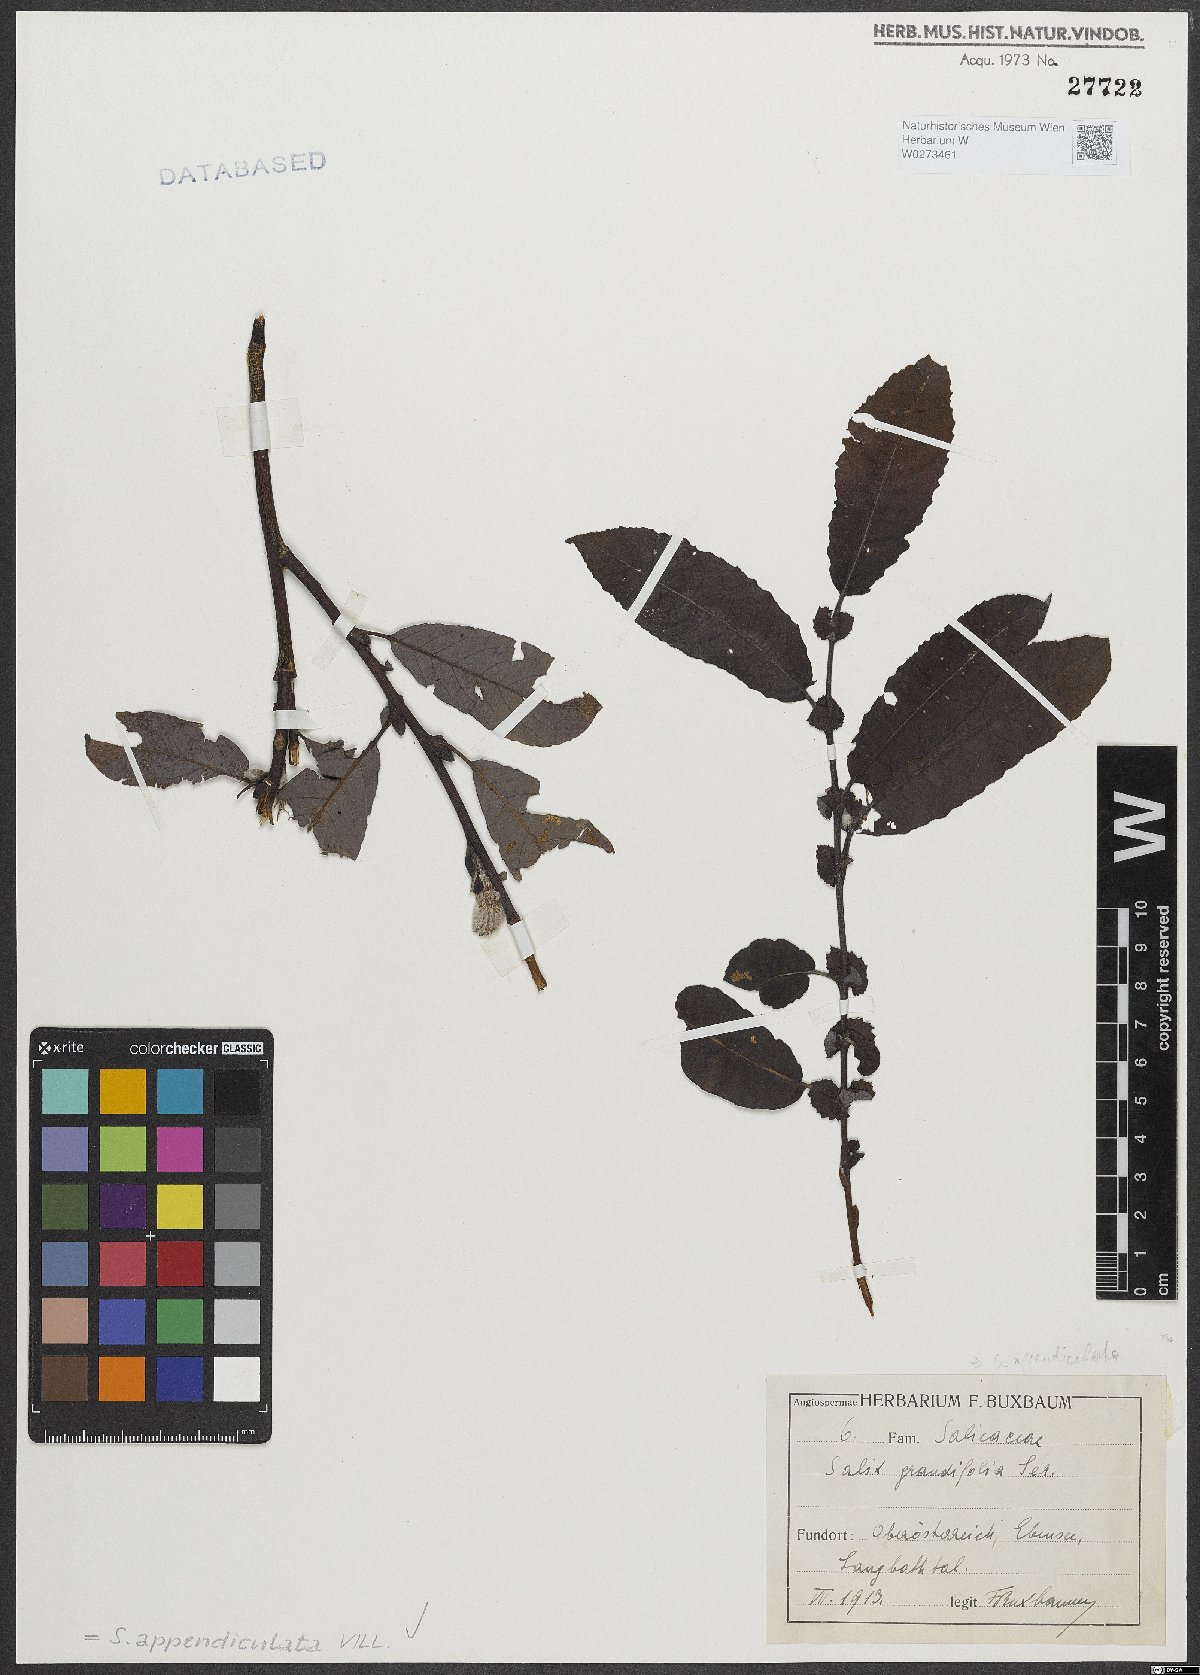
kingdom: Plantae
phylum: Tracheophyta
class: Magnoliopsida
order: Malpighiales
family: Salicaceae
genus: Salix
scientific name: Salix appendiculata
